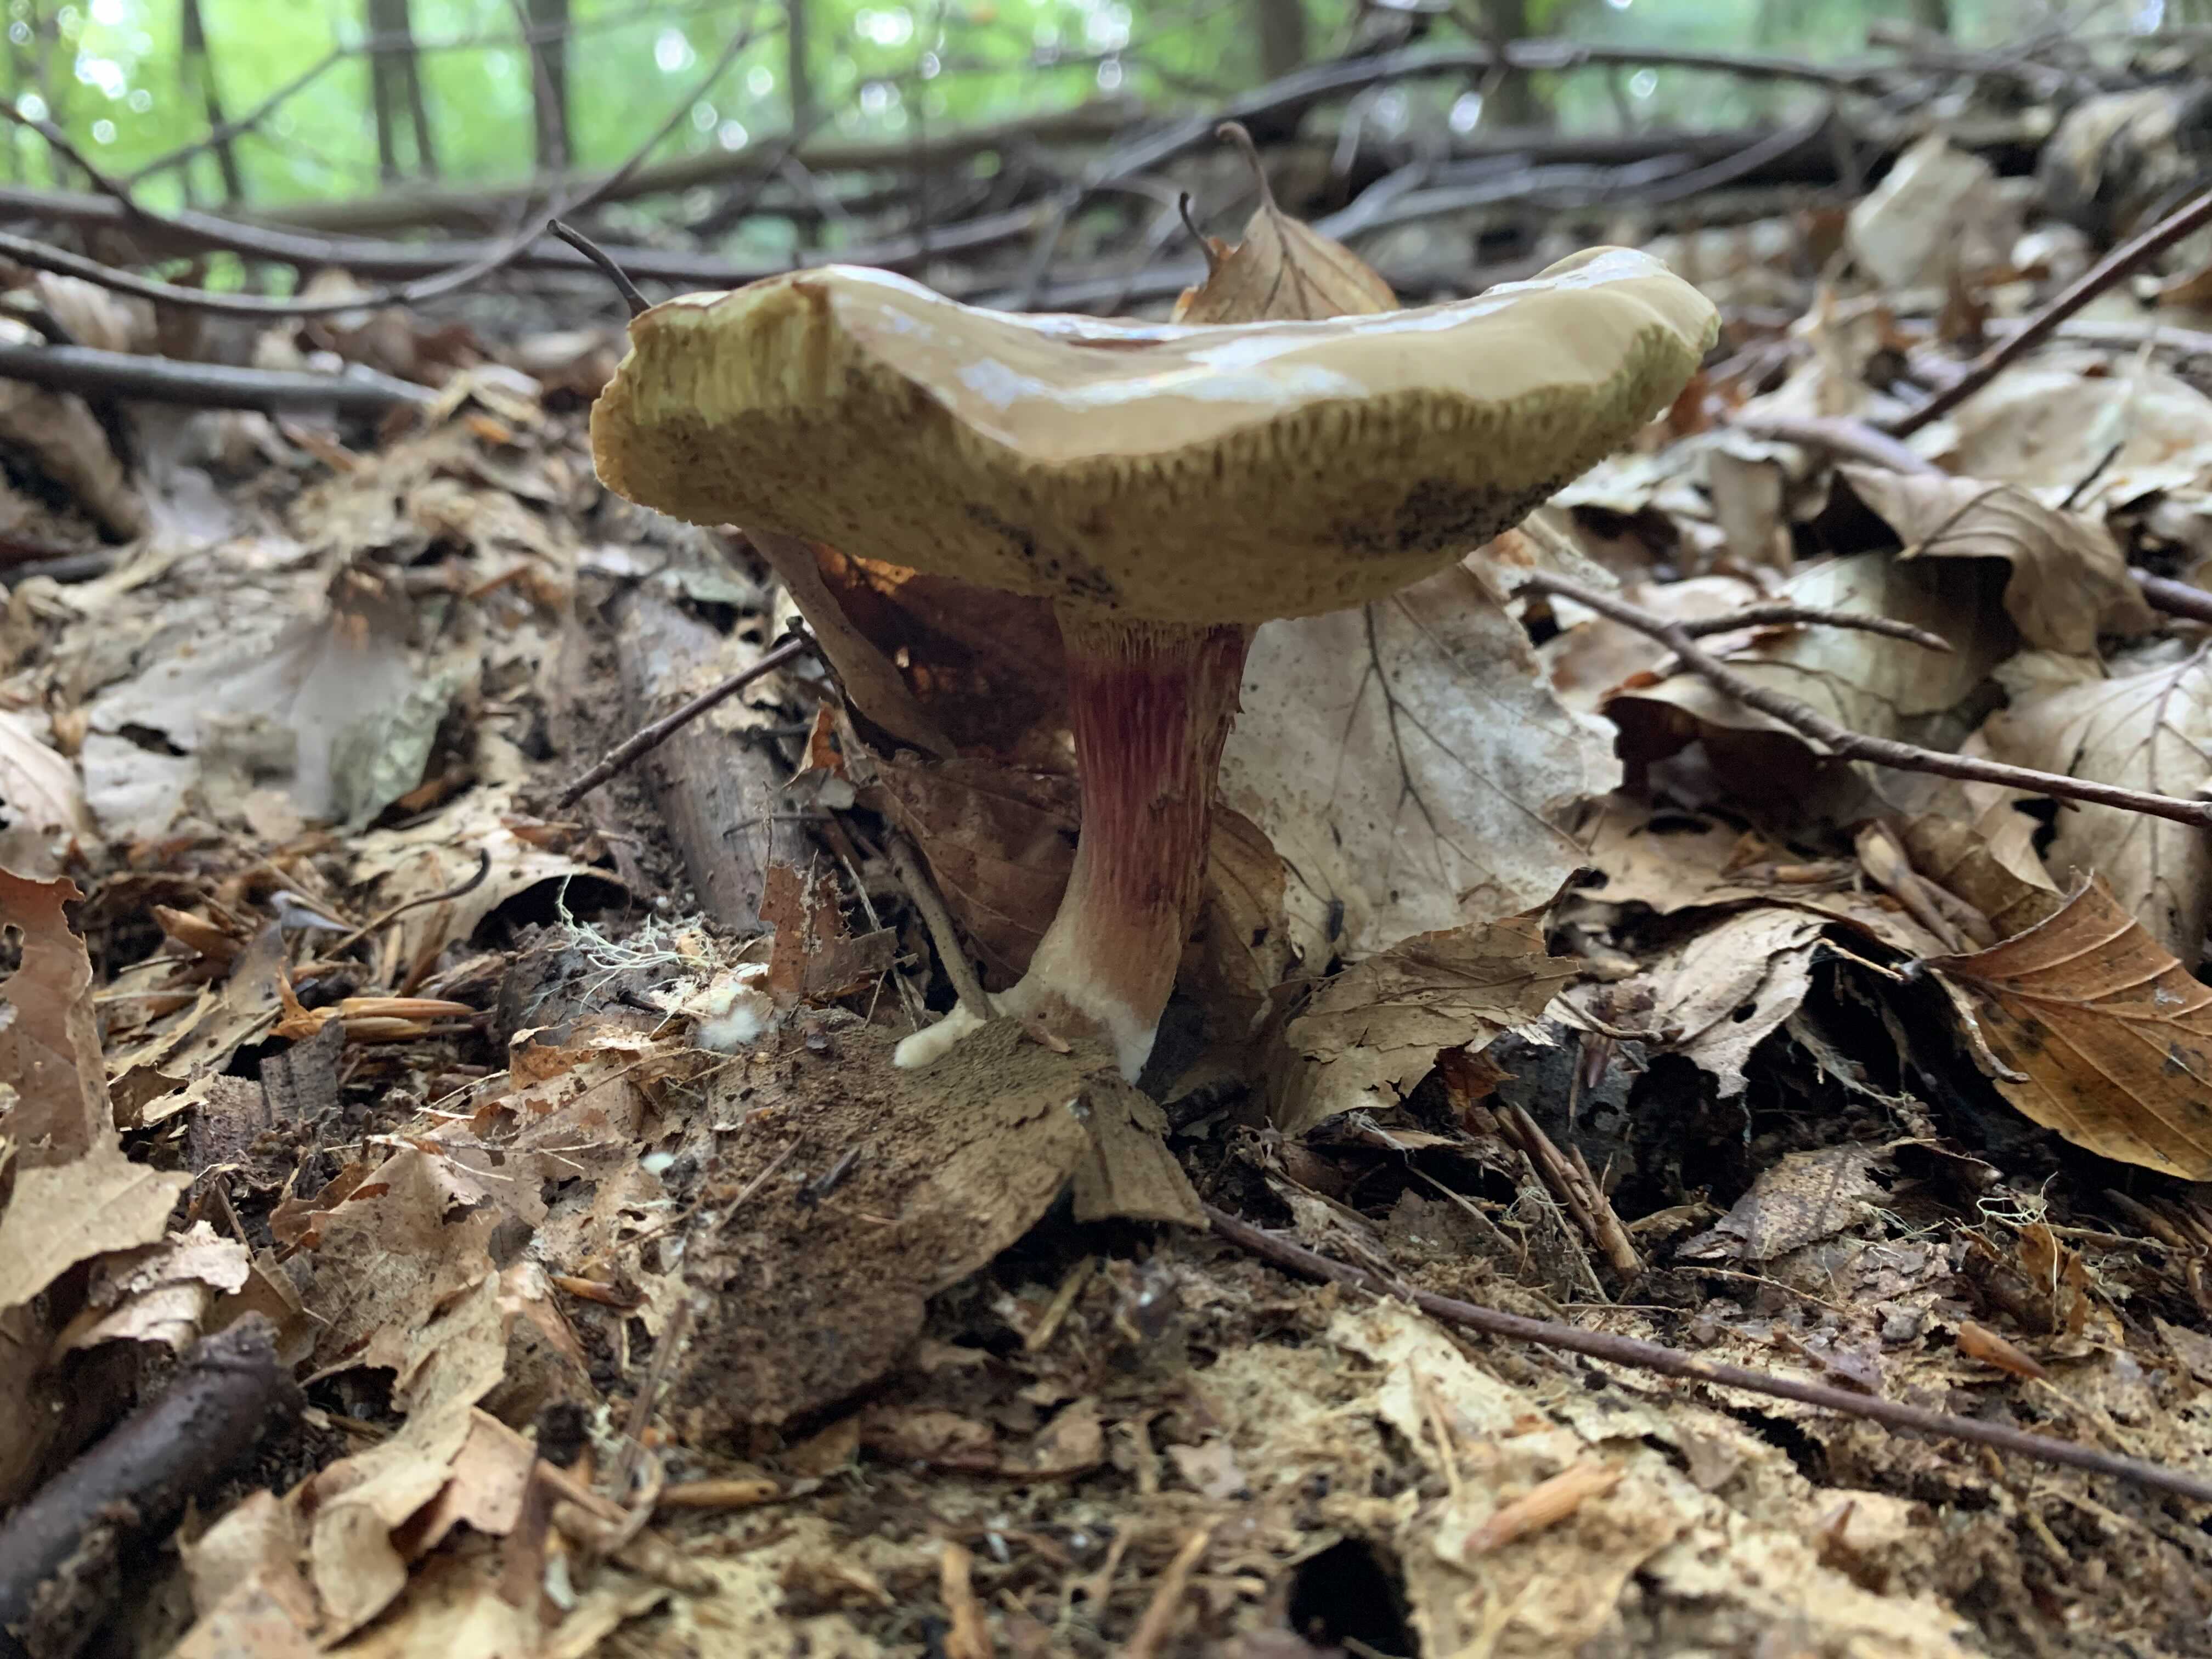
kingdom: Fungi
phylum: Basidiomycota
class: Agaricomycetes
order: Boletales
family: Boletaceae
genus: Xerocomellus
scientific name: Xerocomellus pruinatus
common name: dugget rørhat
